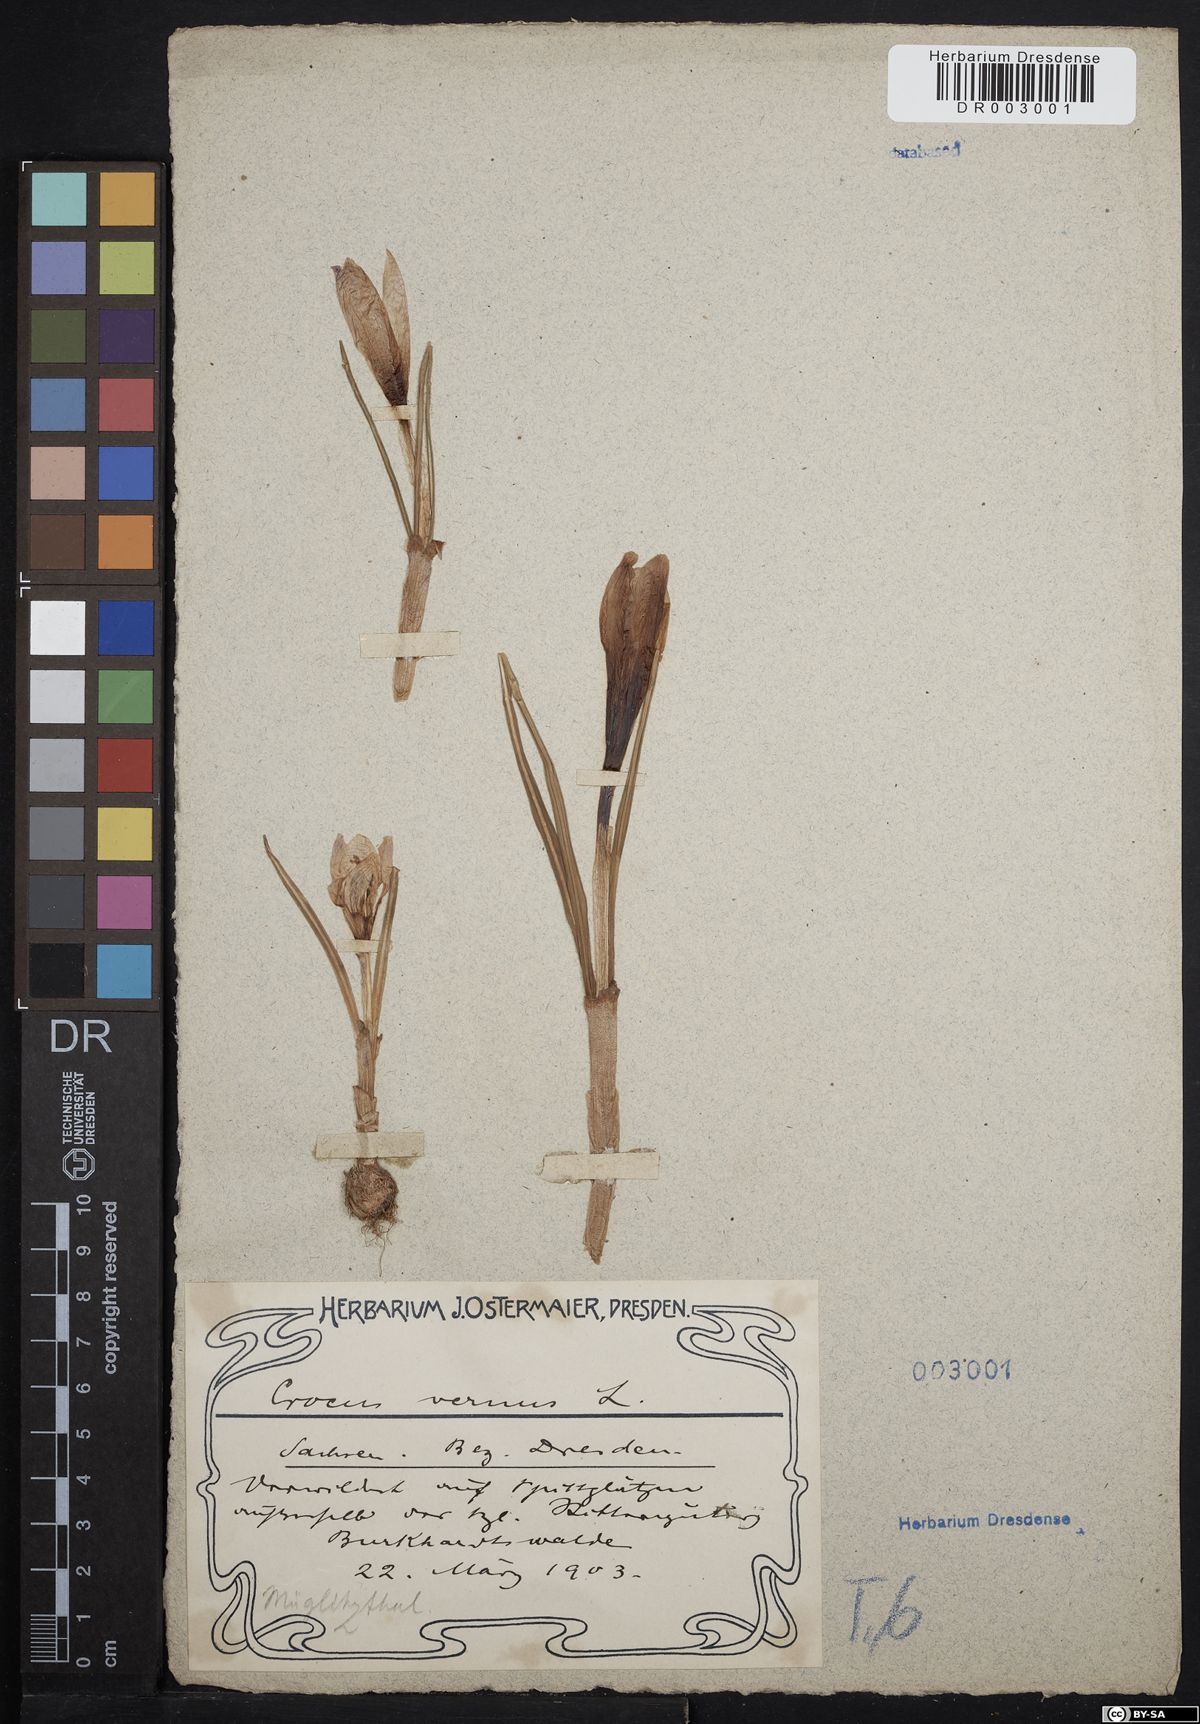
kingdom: Plantae
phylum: Tracheophyta
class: Liliopsida
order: Asparagales
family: Iridaceae
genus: Crocus
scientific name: Crocus vernus
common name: Spring crocus
